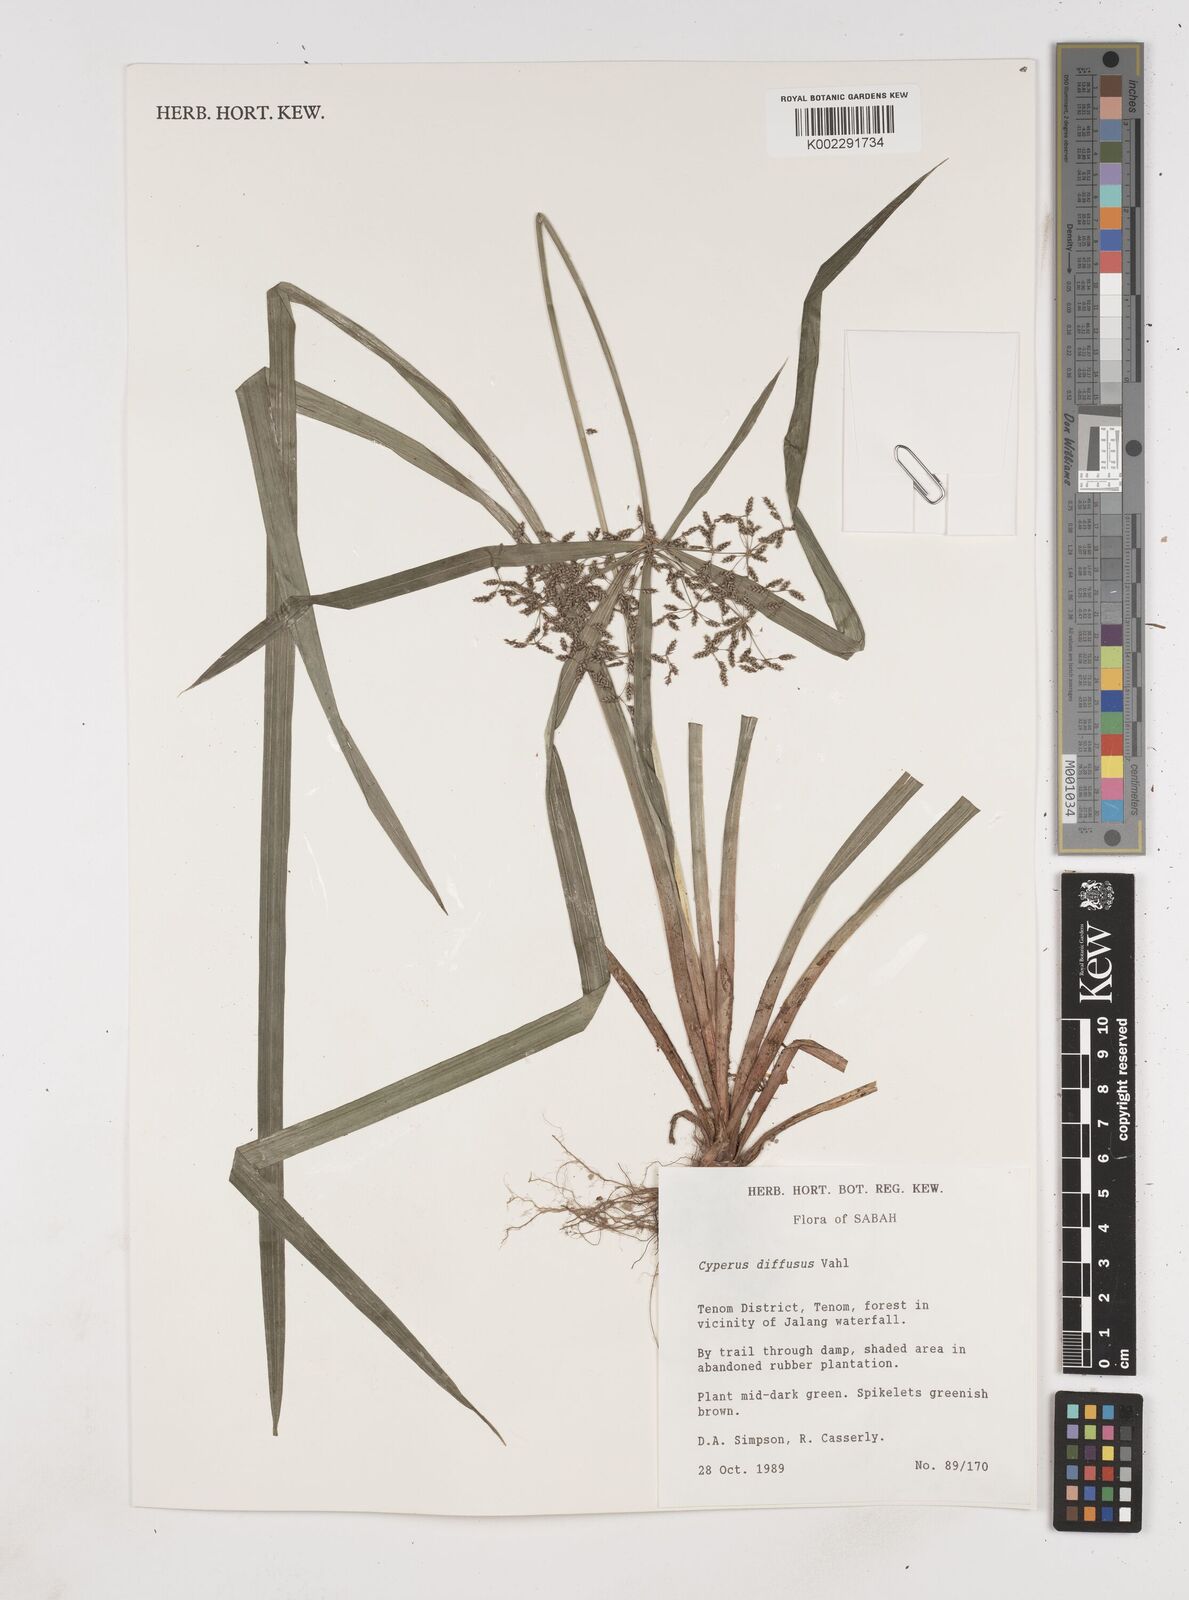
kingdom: Plantae
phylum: Tracheophyta
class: Liliopsida
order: Poales
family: Cyperaceae
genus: Cyperus
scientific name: Cyperus diffusus
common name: Dwarf umbrella grass
